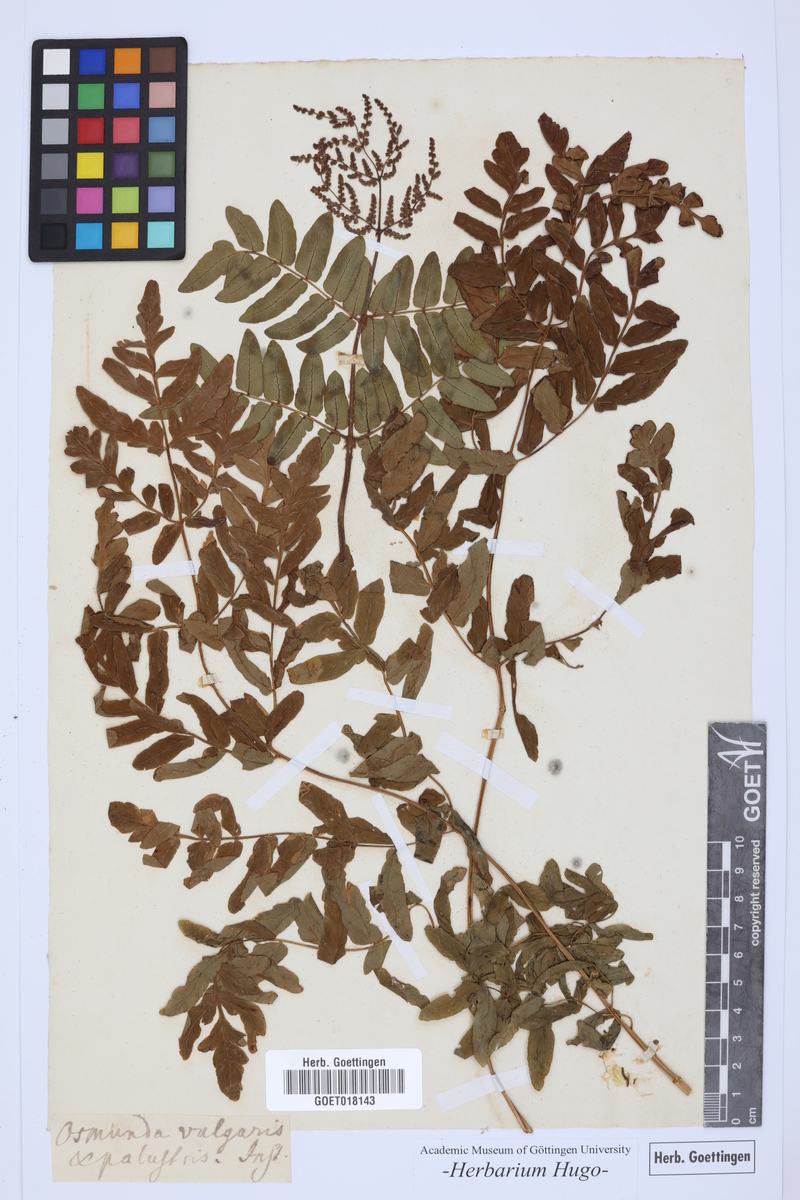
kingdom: Plantae
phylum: Tracheophyta
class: Polypodiopsida
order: Osmundales
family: Osmundaceae
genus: Osmunda
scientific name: Osmunda regalis
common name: Royal fern
